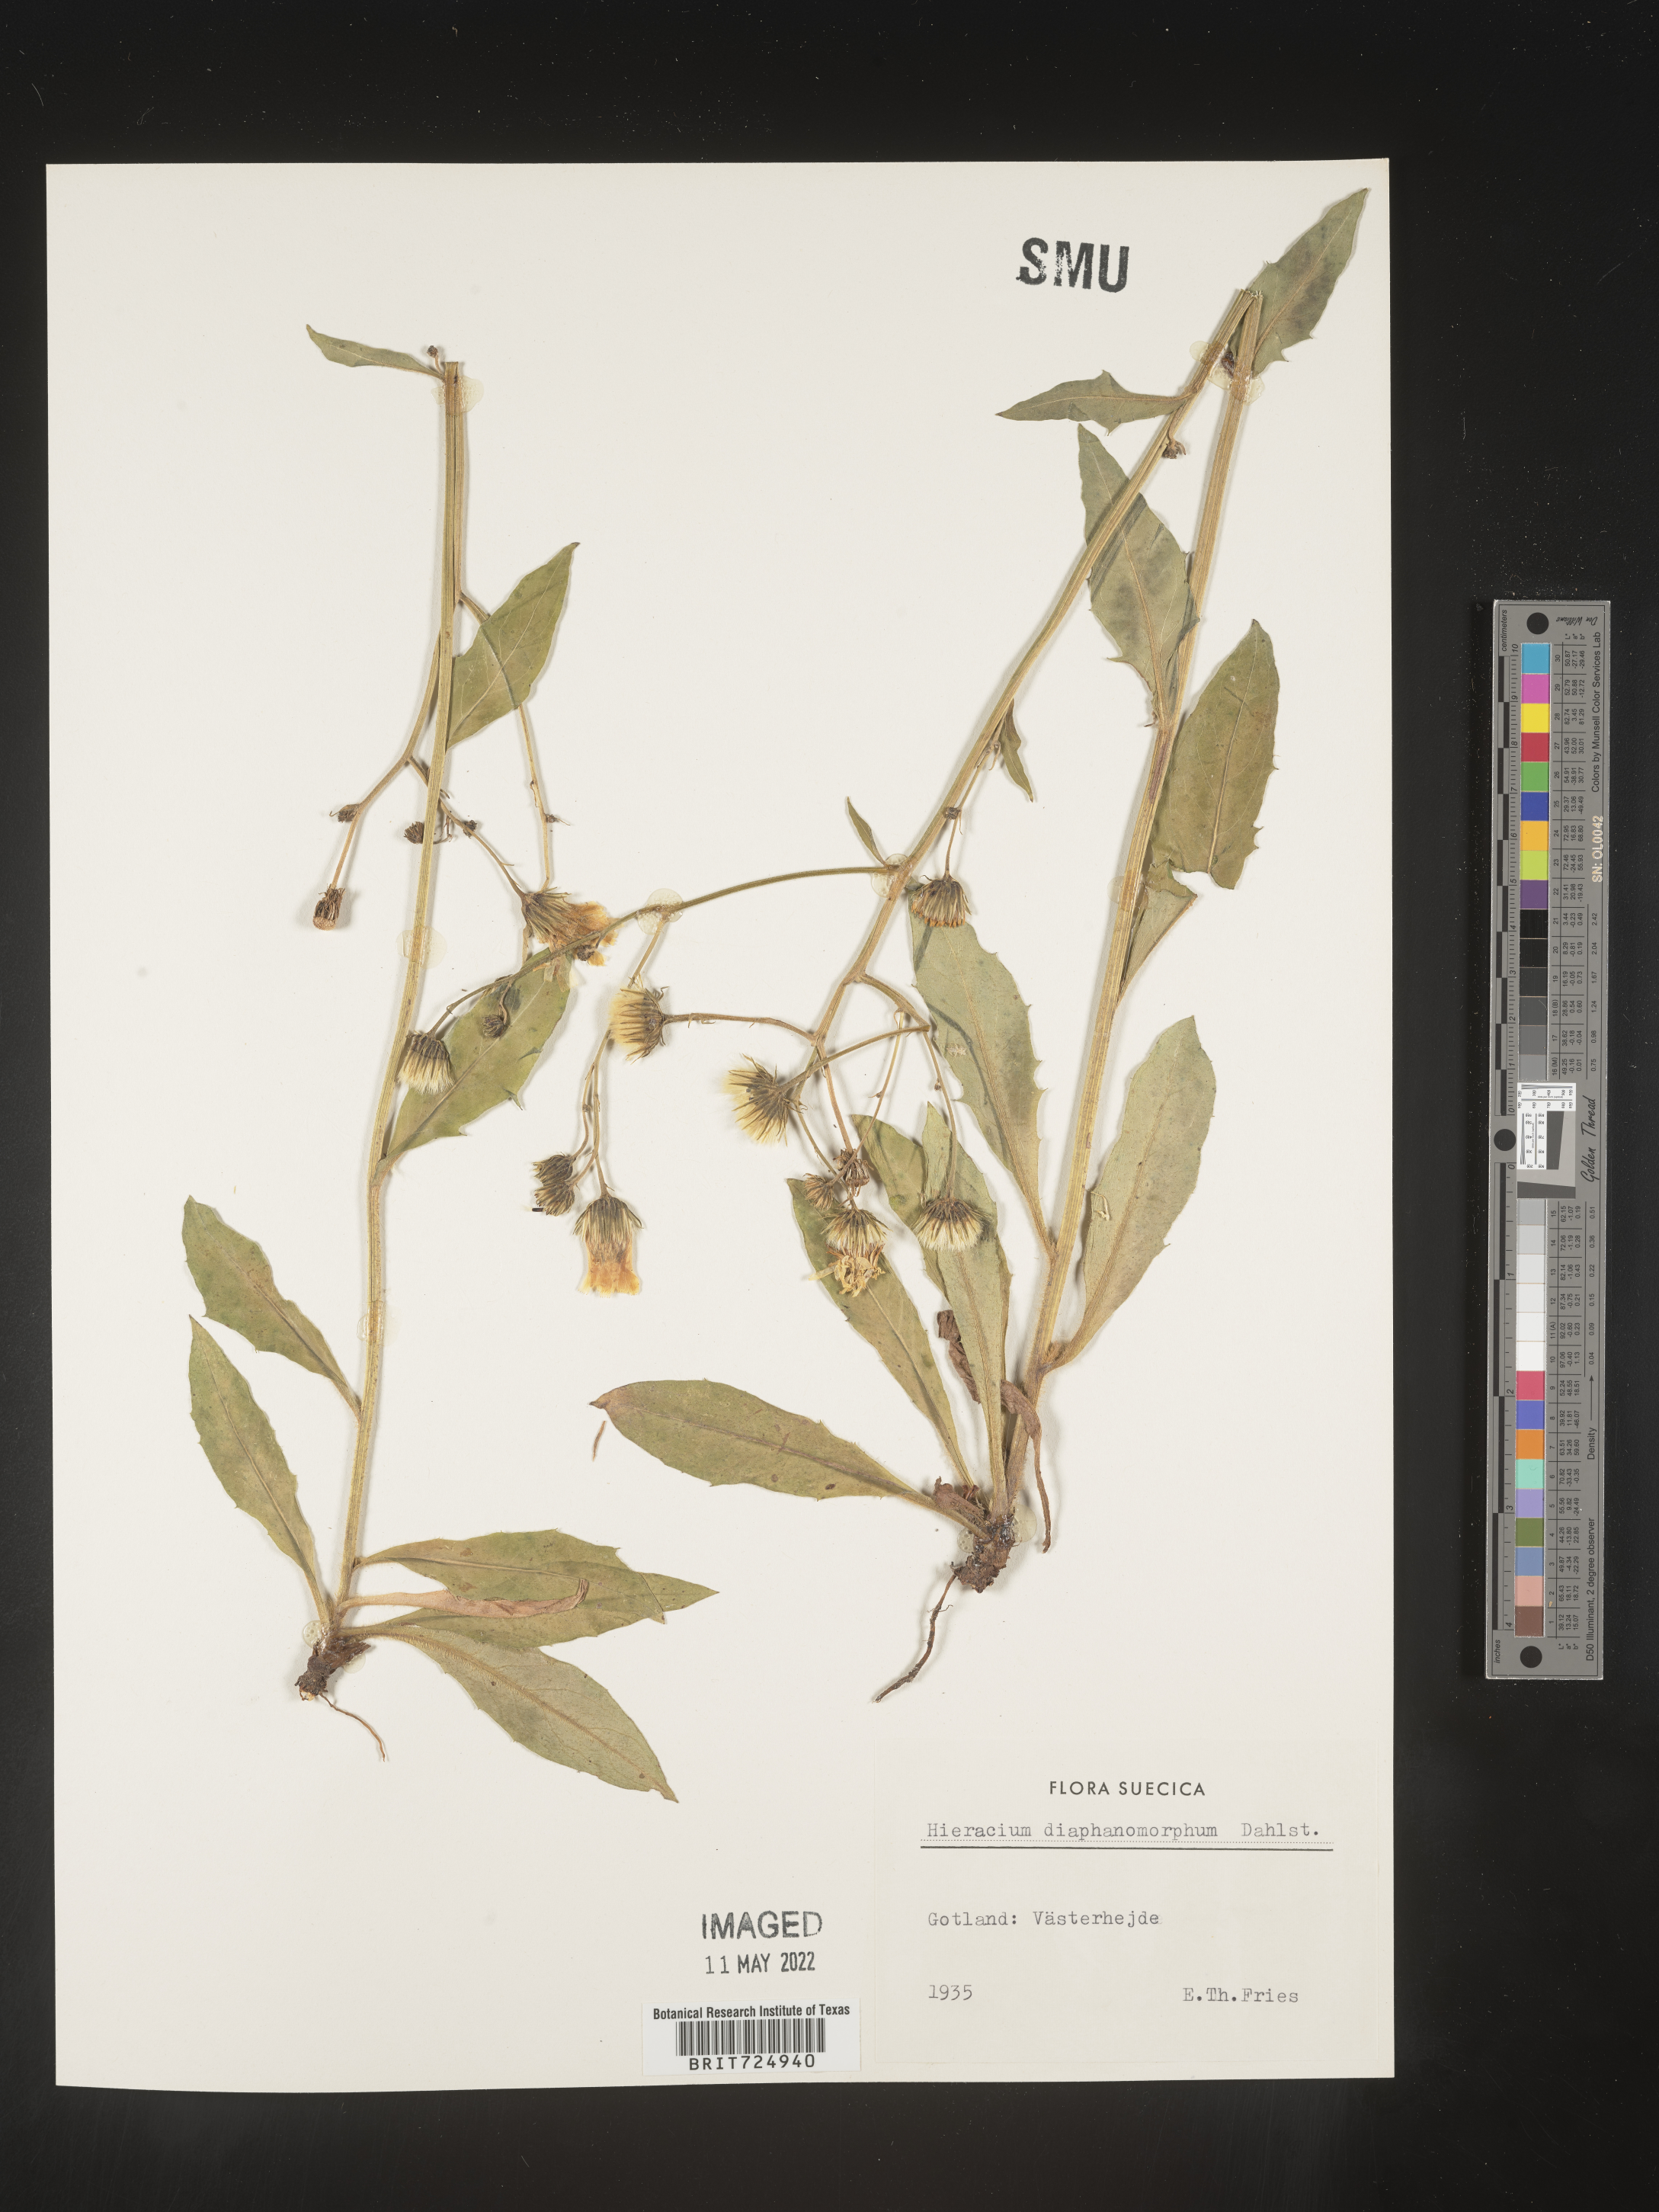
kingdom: Plantae
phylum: Tracheophyta
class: Magnoliopsida
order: Asterales
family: Asteraceae
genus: Hieracium
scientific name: Hieracium
